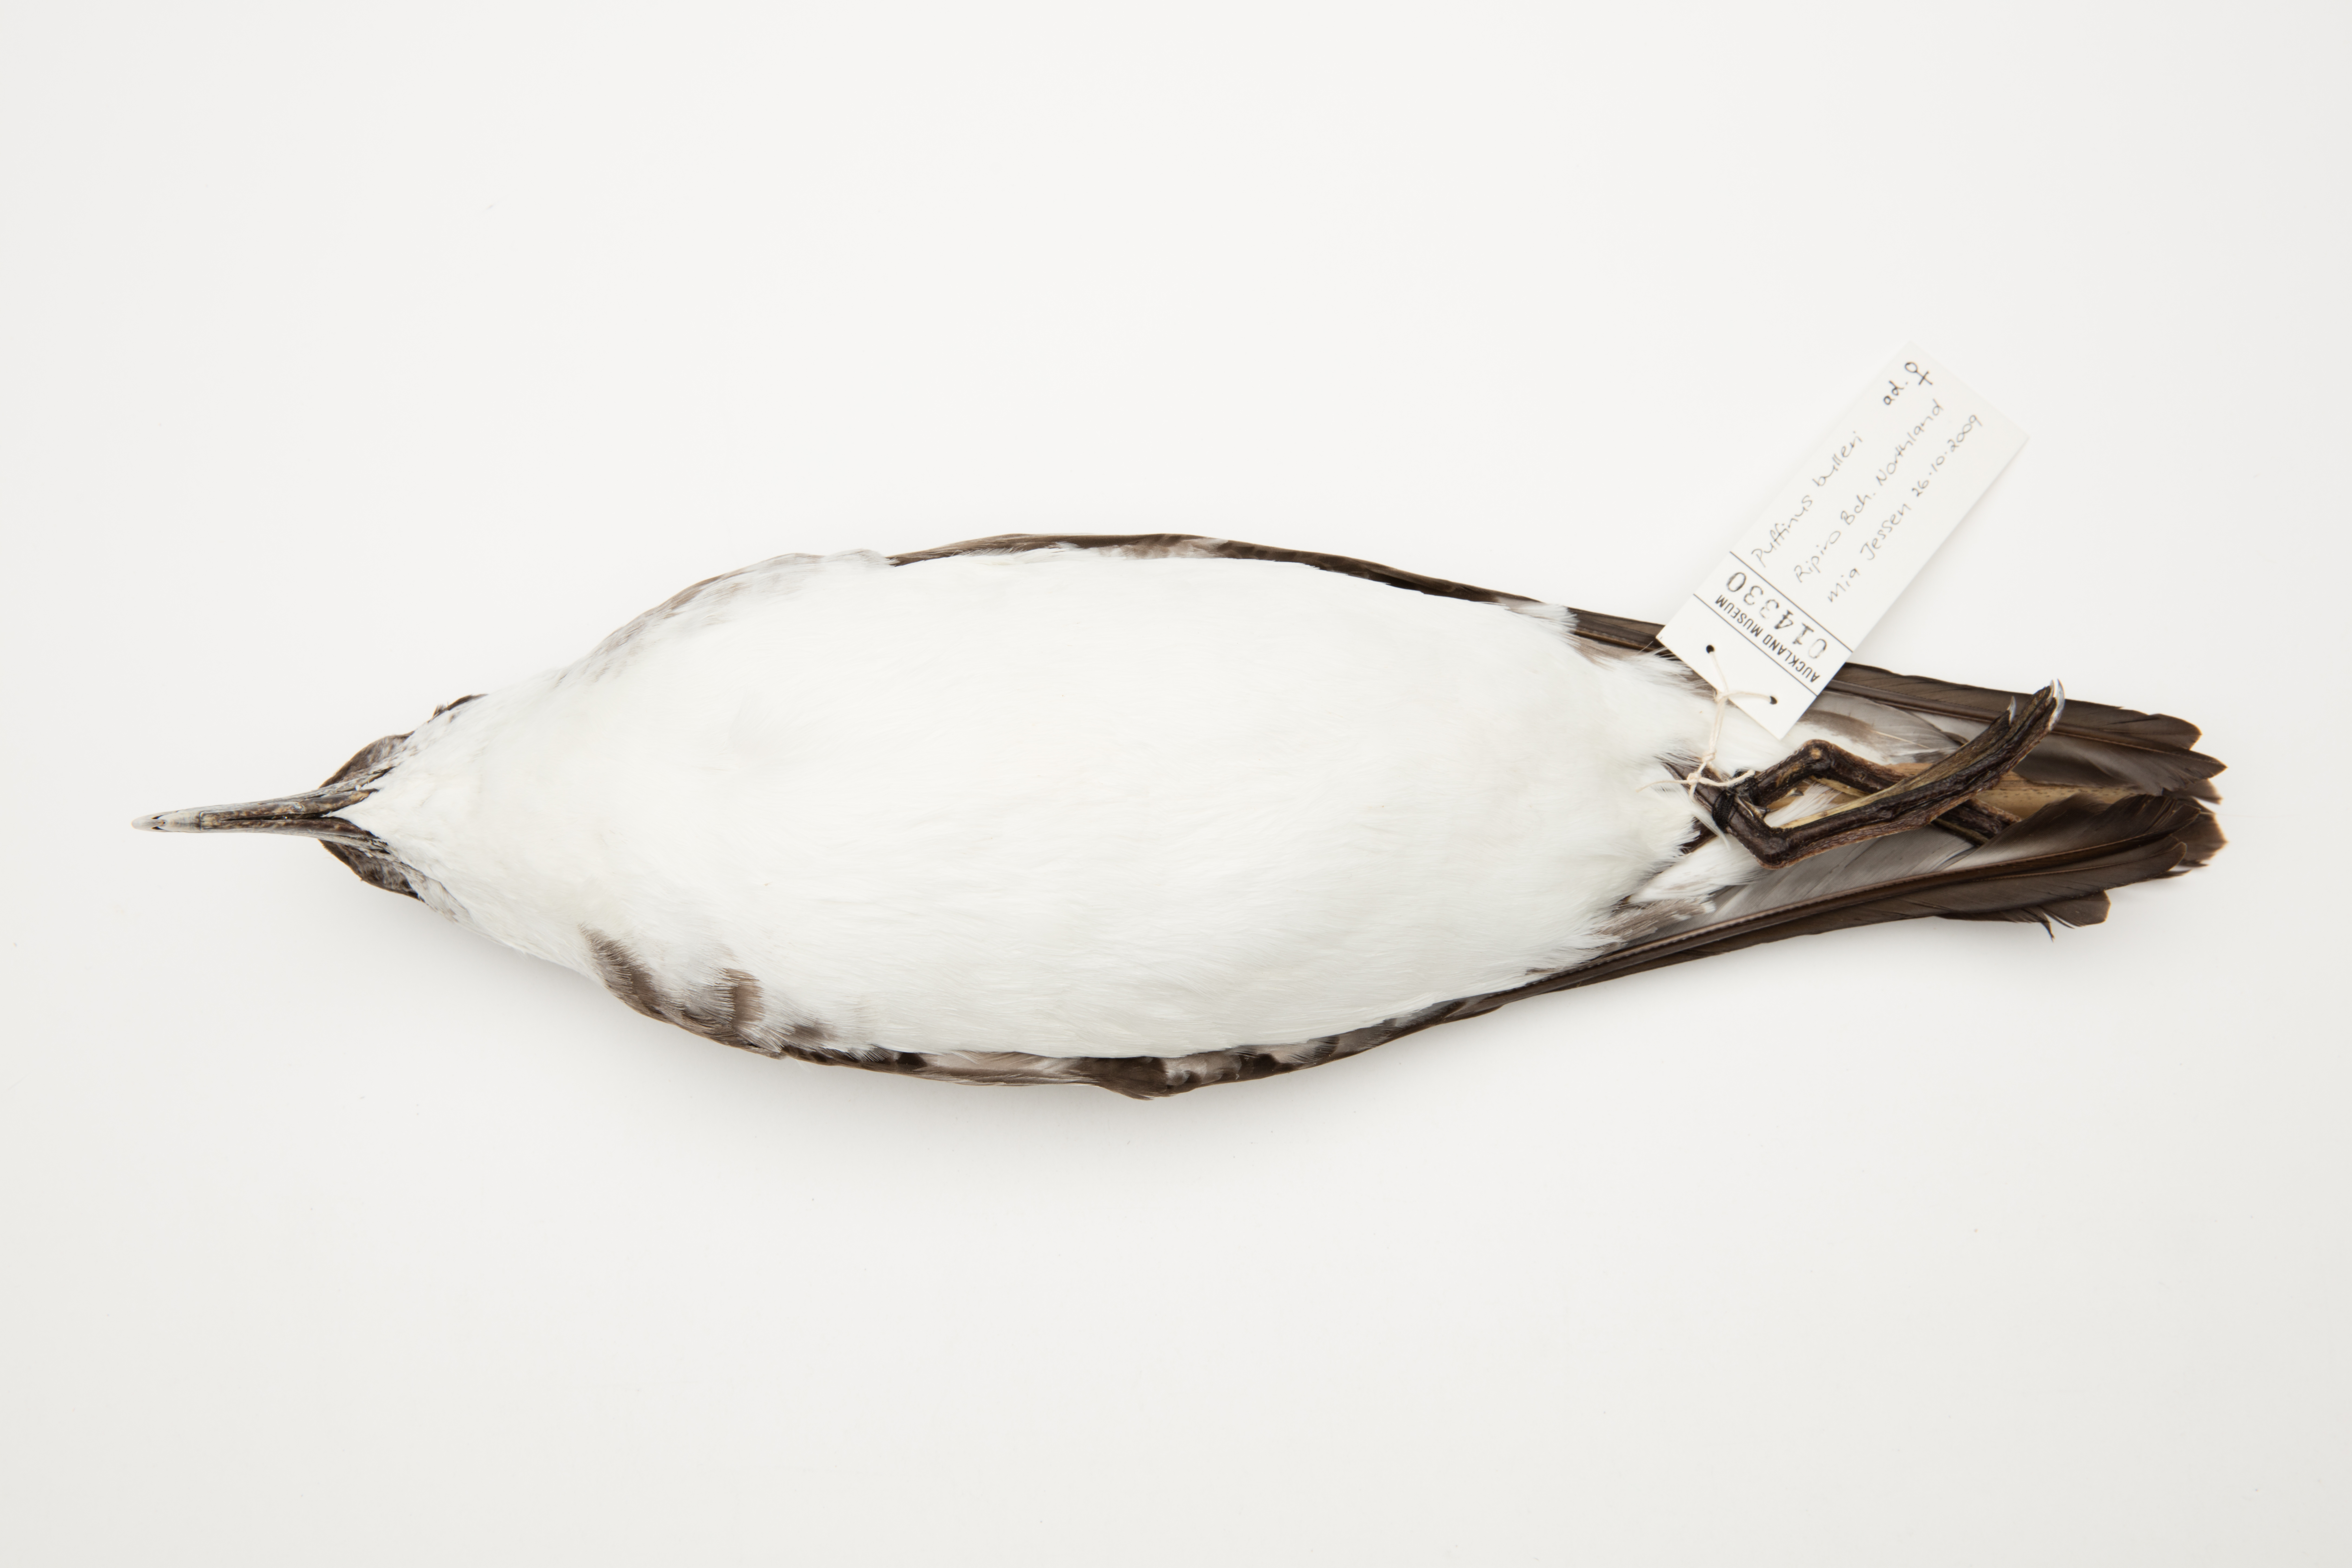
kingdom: Animalia
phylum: Chordata
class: Aves
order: Procellariiformes
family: Procellariidae
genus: Ardenna
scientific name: Ardenna
